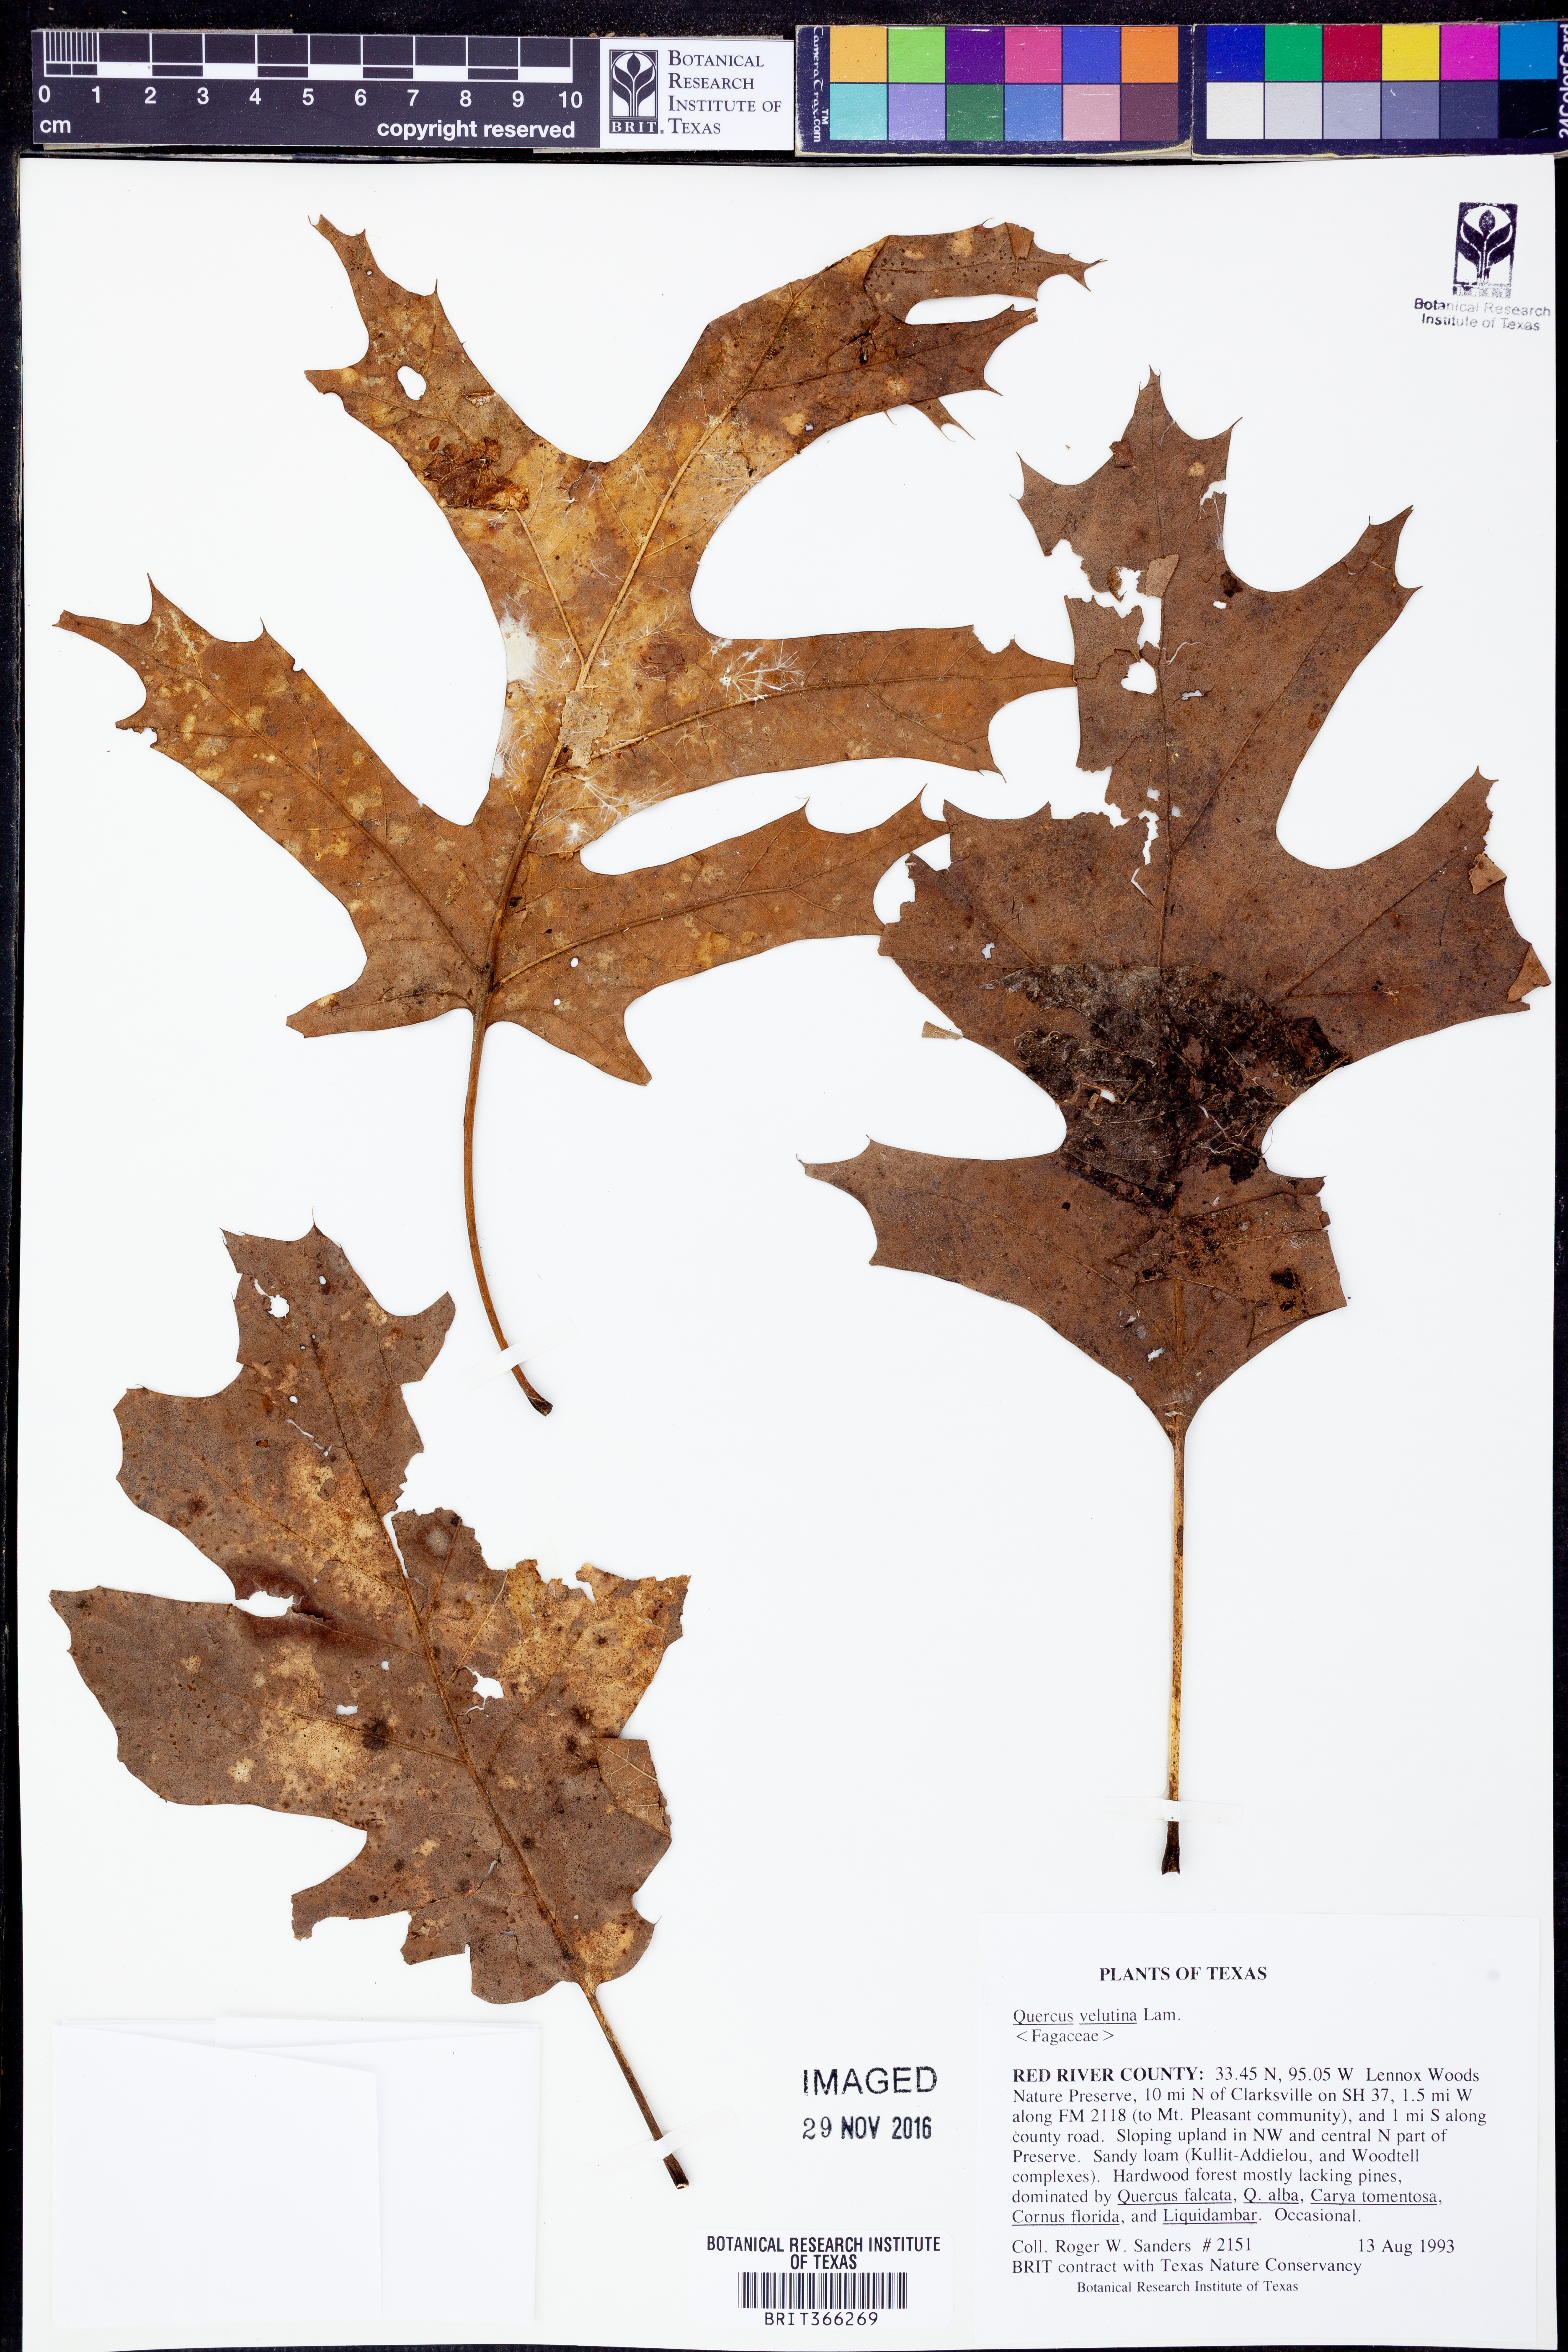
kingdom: Plantae
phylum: Tracheophyta
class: Magnoliopsida
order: Fagales
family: Fagaceae
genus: Quercus
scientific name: Quercus velutina
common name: Black oak
